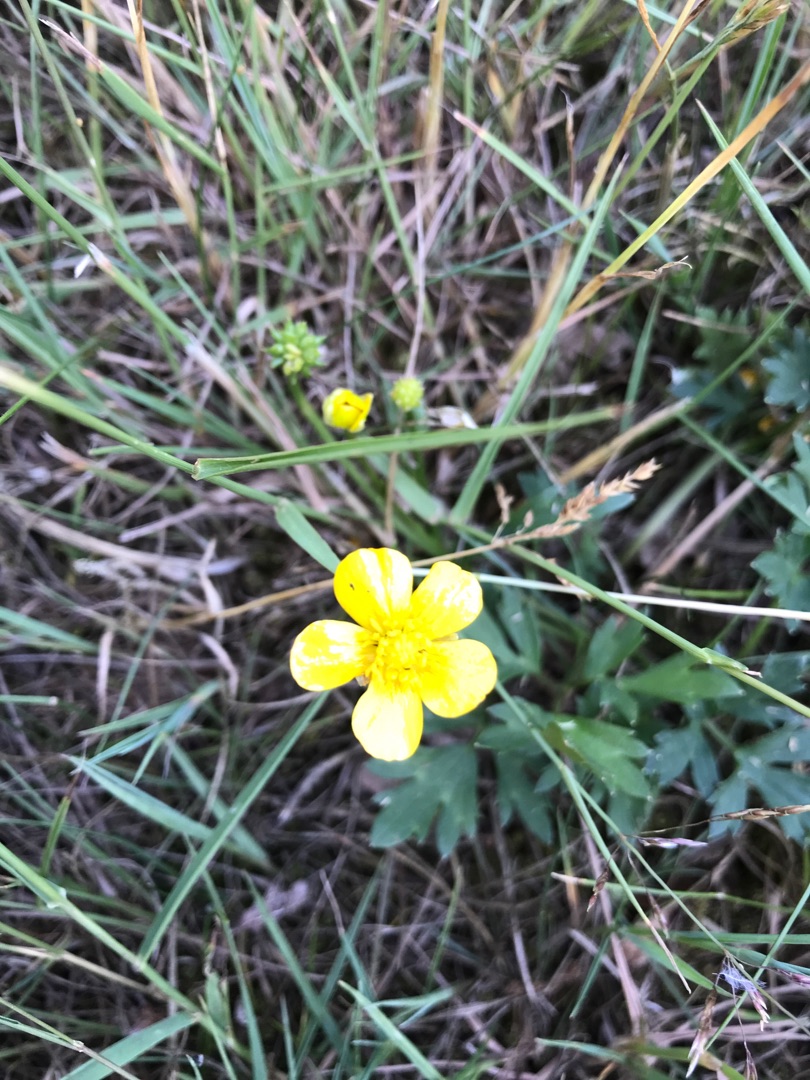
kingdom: Plantae
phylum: Tracheophyta
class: Magnoliopsida
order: Ranunculales
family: Ranunculaceae
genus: Ranunculus
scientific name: Ranunculus repens
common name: Lav ranunkel
